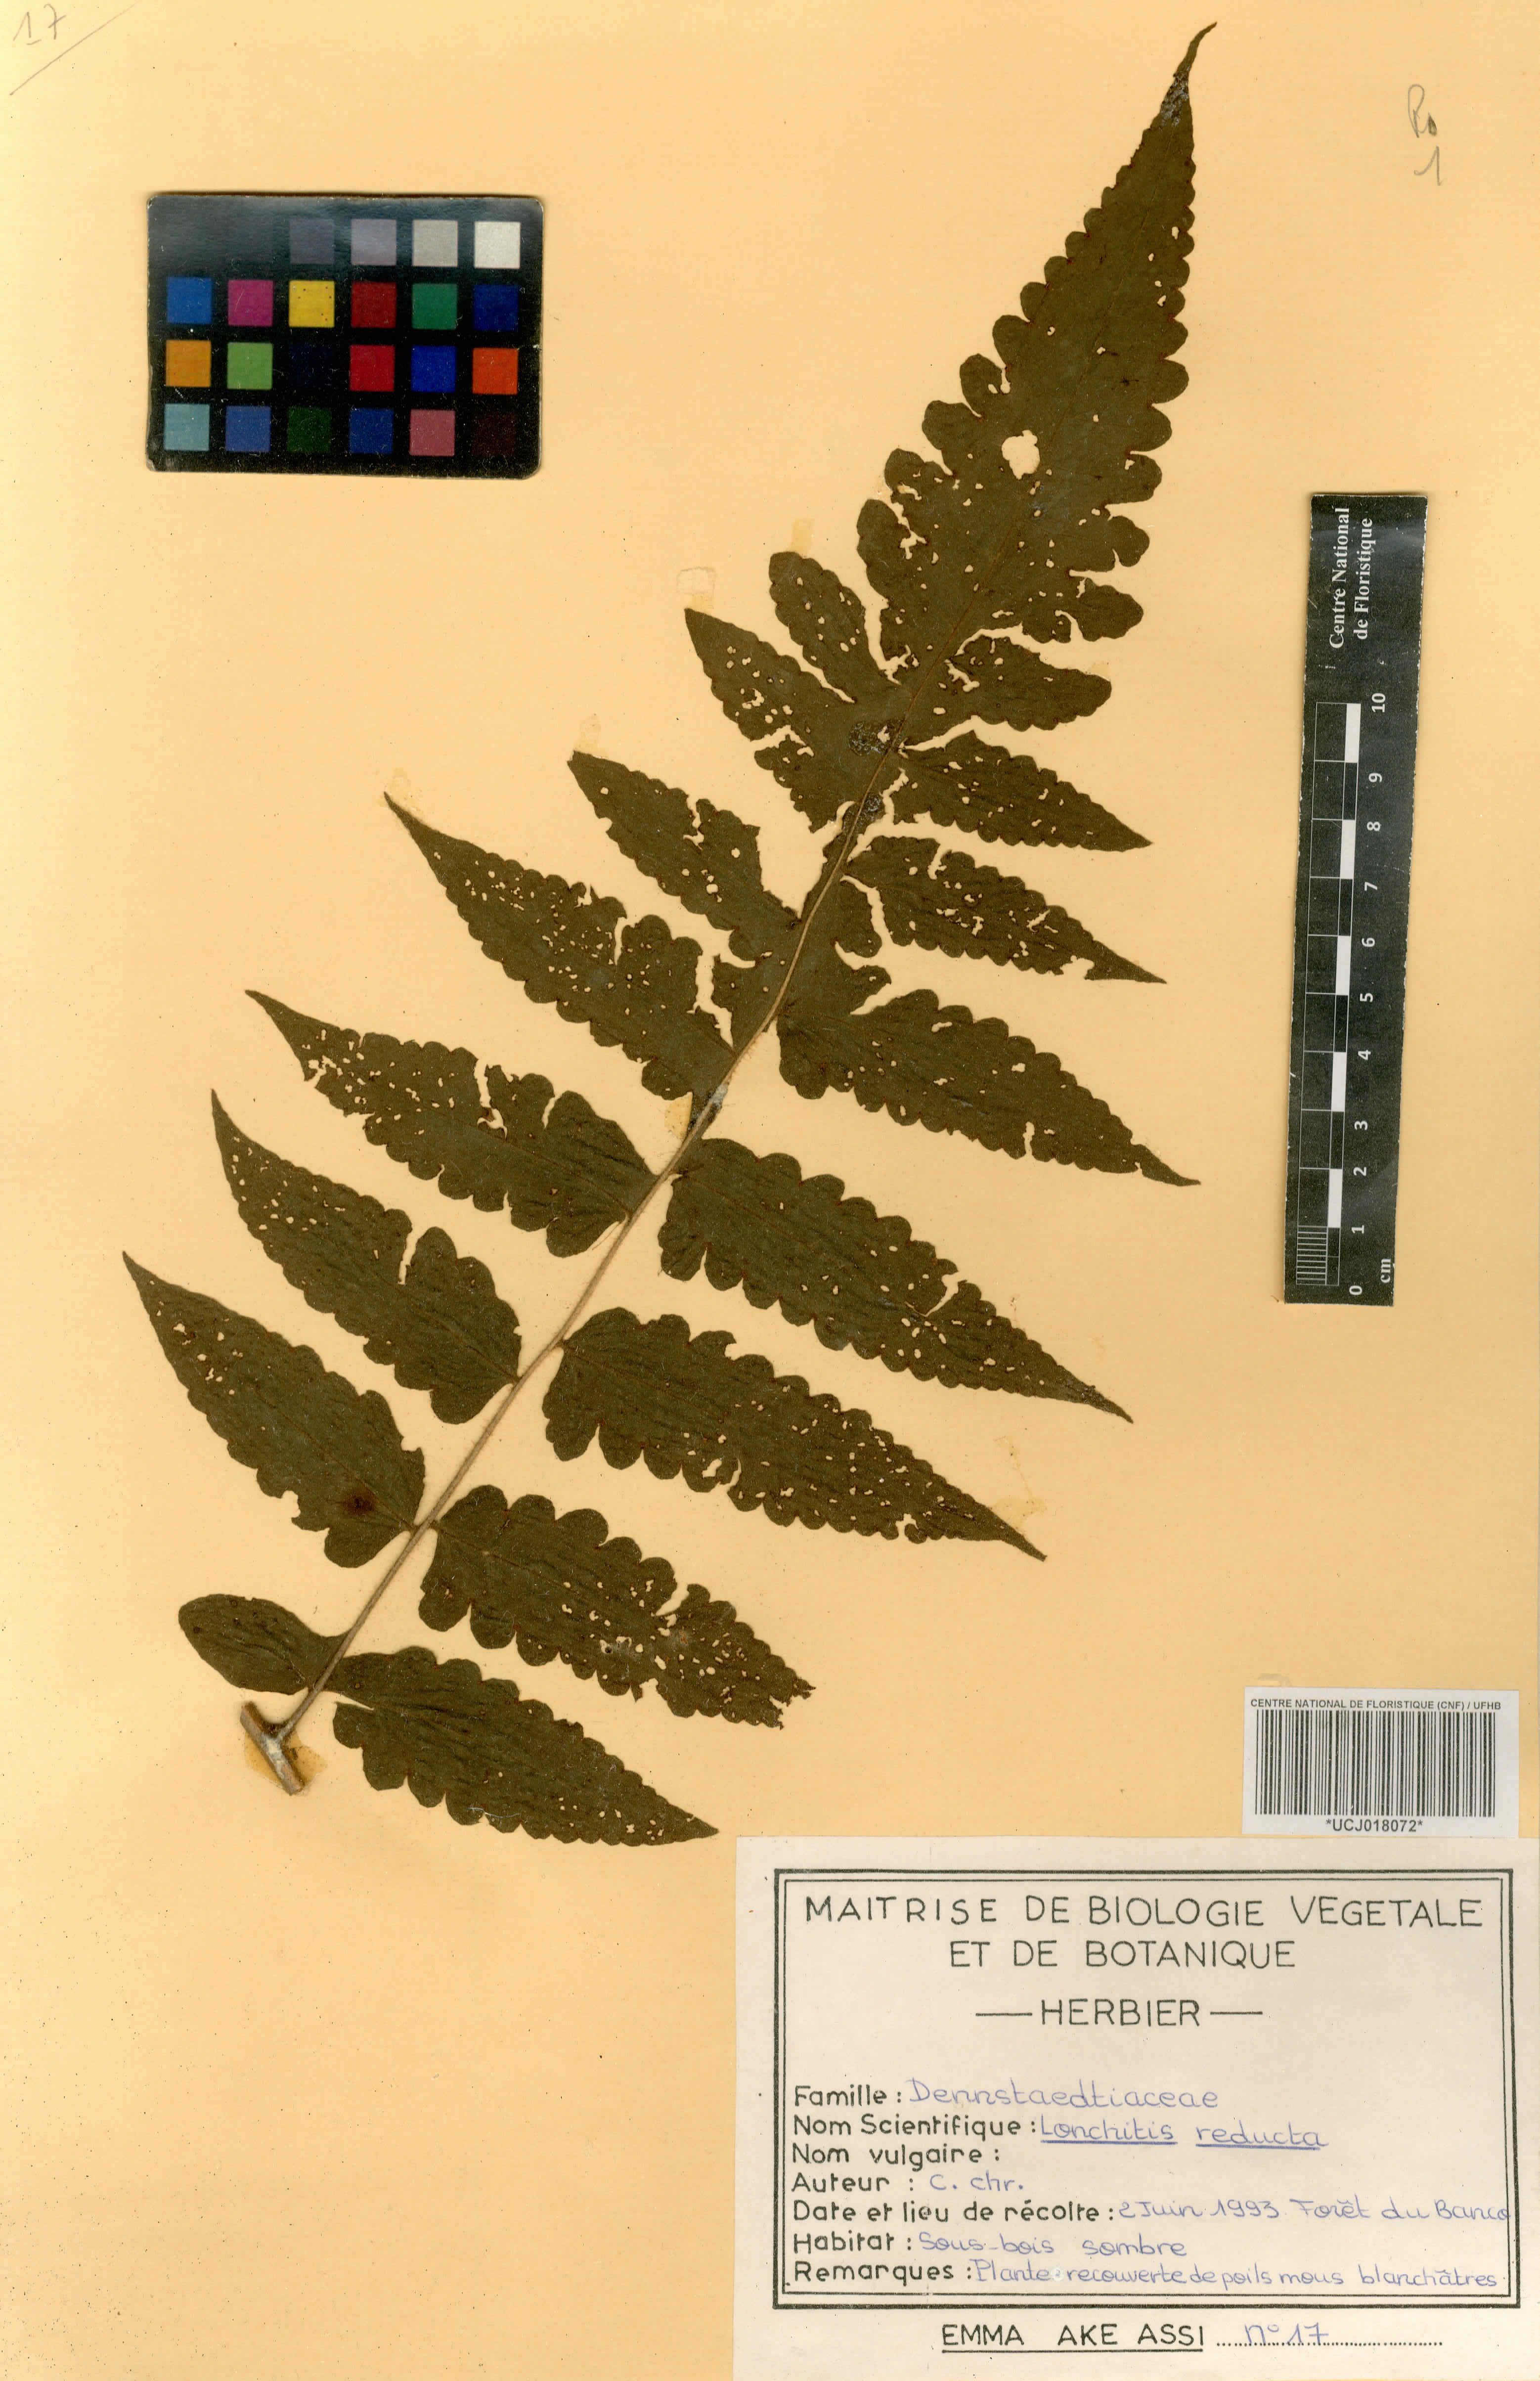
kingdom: Plantae
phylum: Tracheophyta
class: Polypodiopsida
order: Polypodiales
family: Dennstaedtiaceae
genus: Blotiella
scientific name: Blotiella reducta
